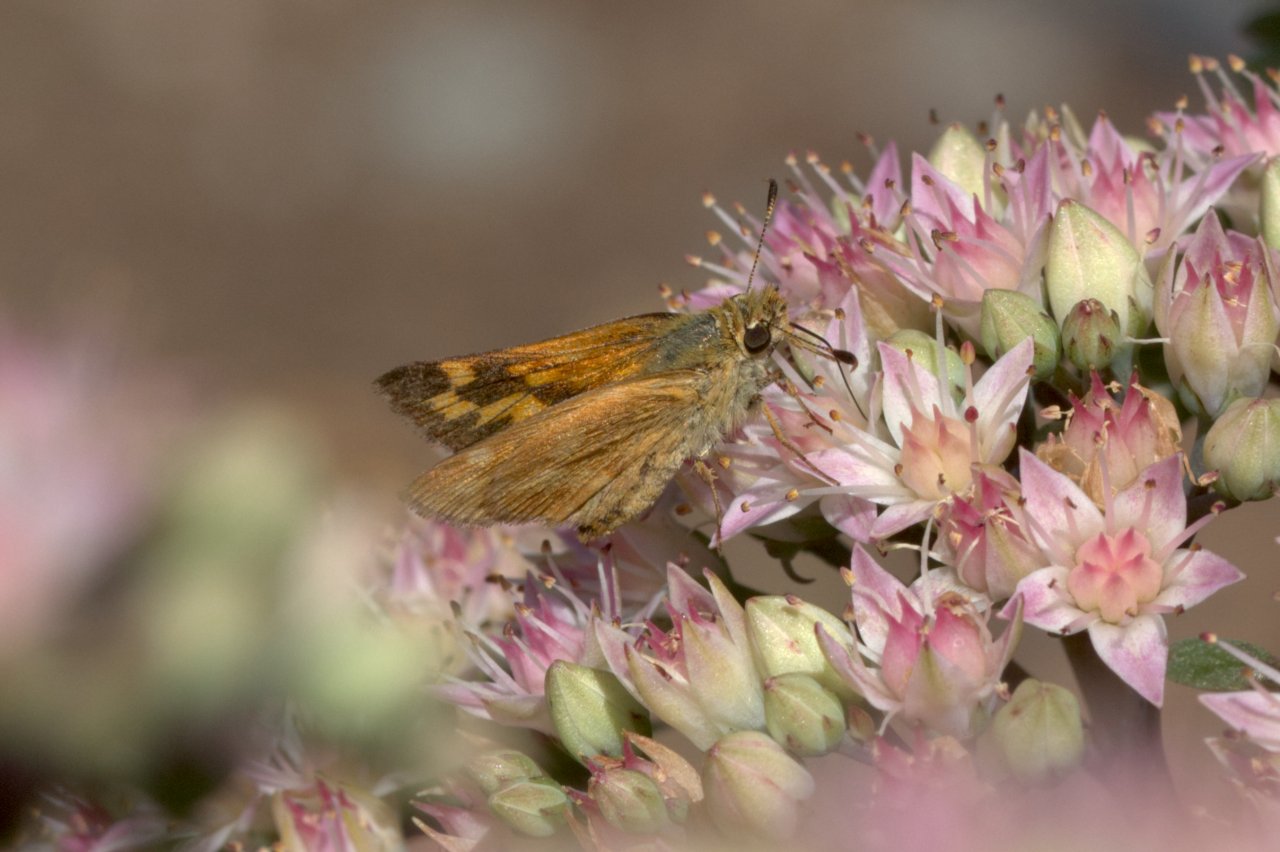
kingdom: Animalia
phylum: Arthropoda
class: Insecta
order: Lepidoptera
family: Hesperiidae
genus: Ochlodes
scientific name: Ochlodes sylvanoides
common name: Woodland Skipper
